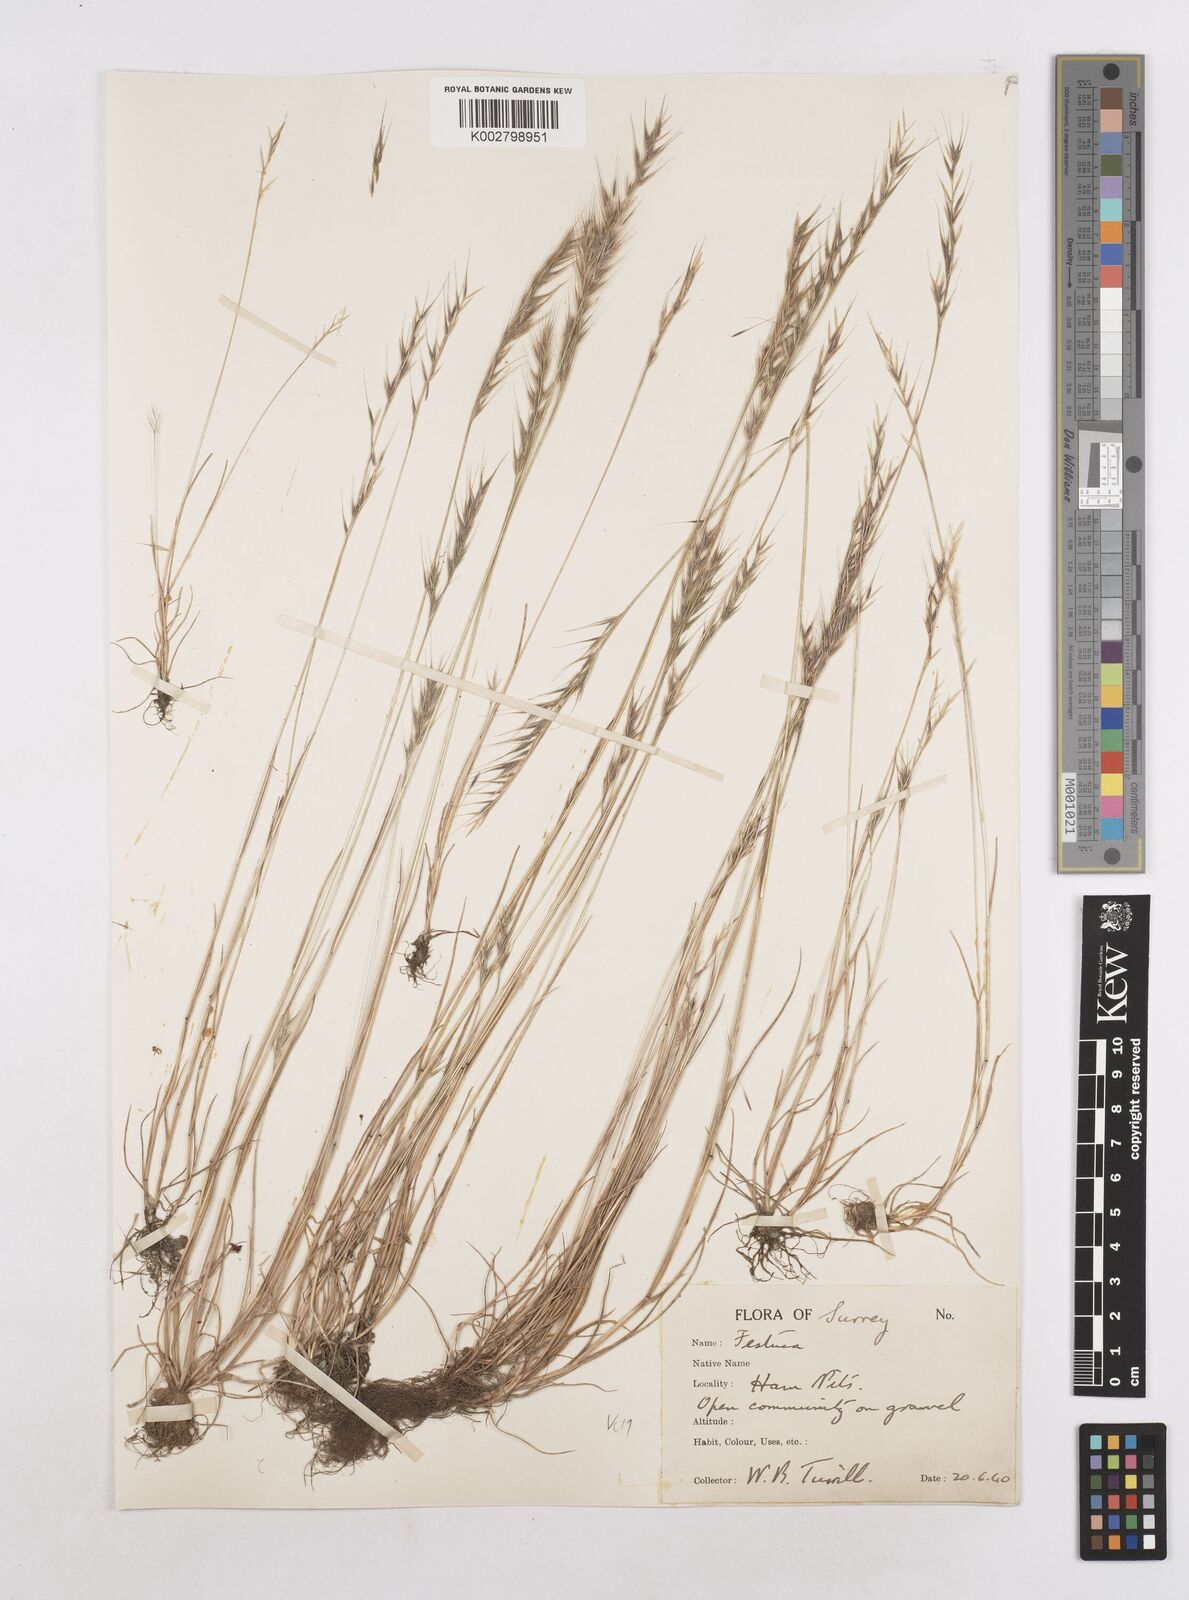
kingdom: Plantae
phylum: Tracheophyta
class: Liliopsida
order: Poales
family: Poaceae
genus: Festuca
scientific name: Festuca bromoides
